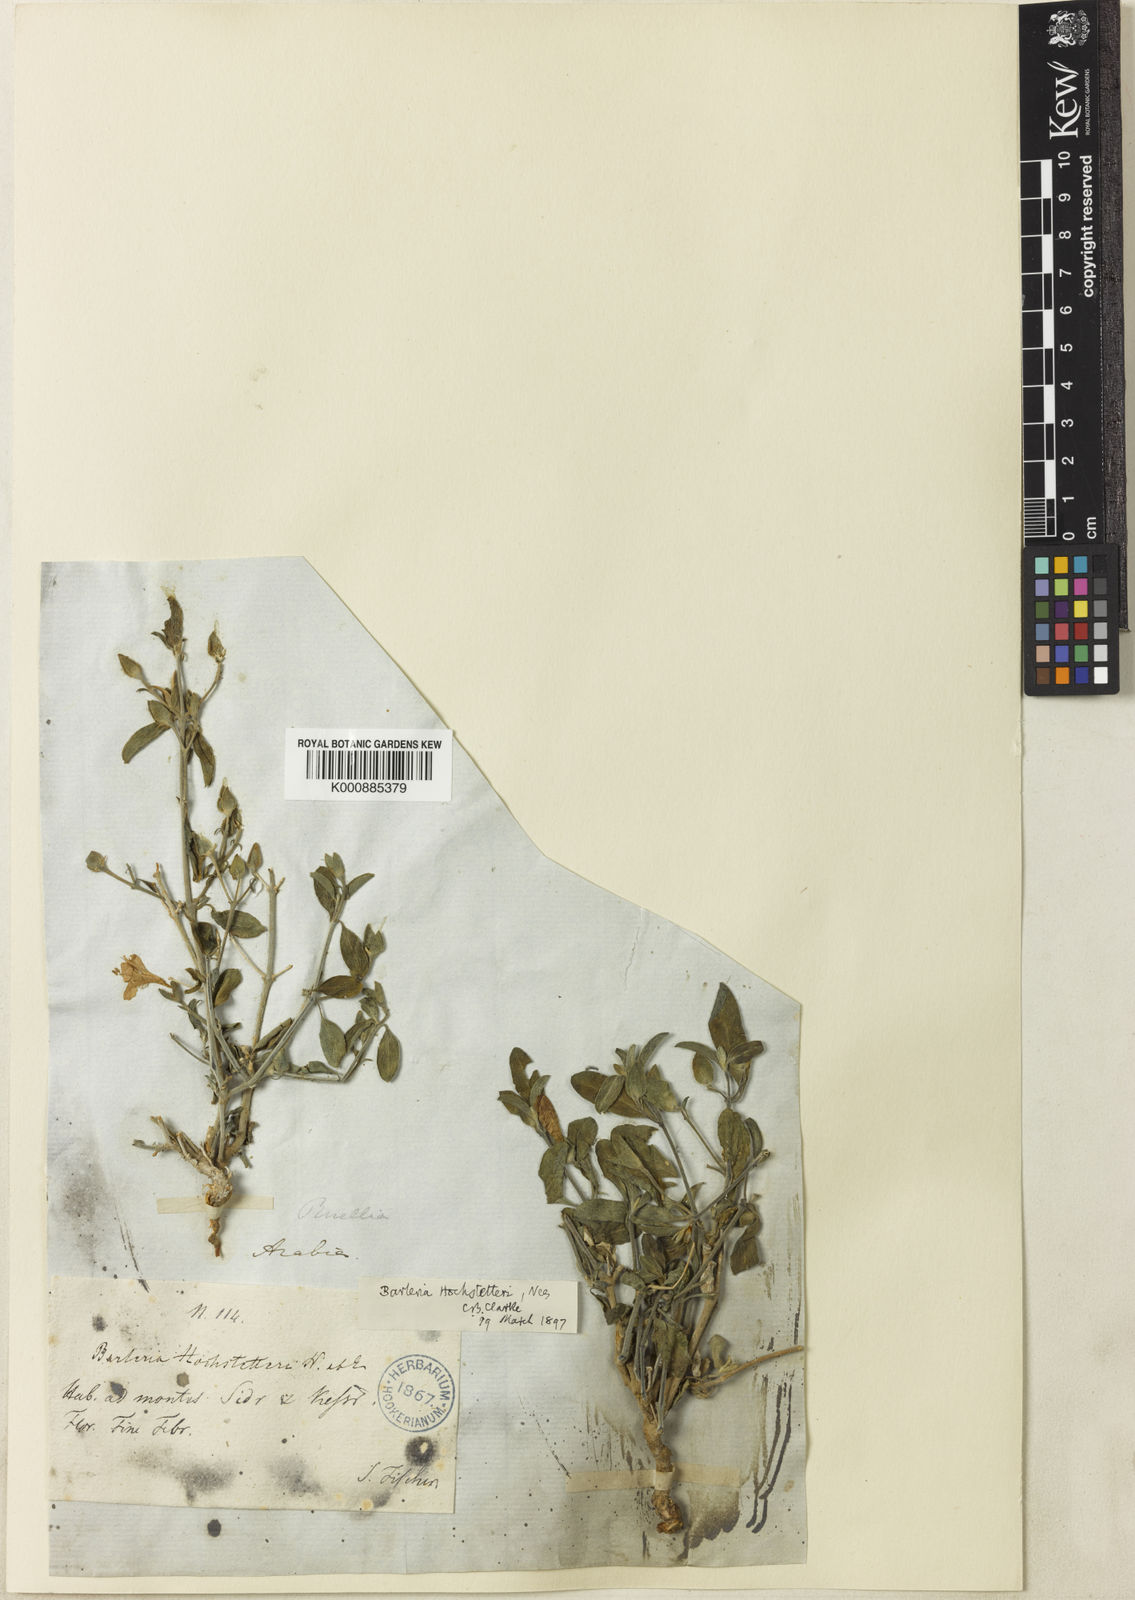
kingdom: Plantae
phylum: Tracheophyta
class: Magnoliopsida
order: Lamiales
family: Acanthaceae
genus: Barleria
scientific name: Barleria
